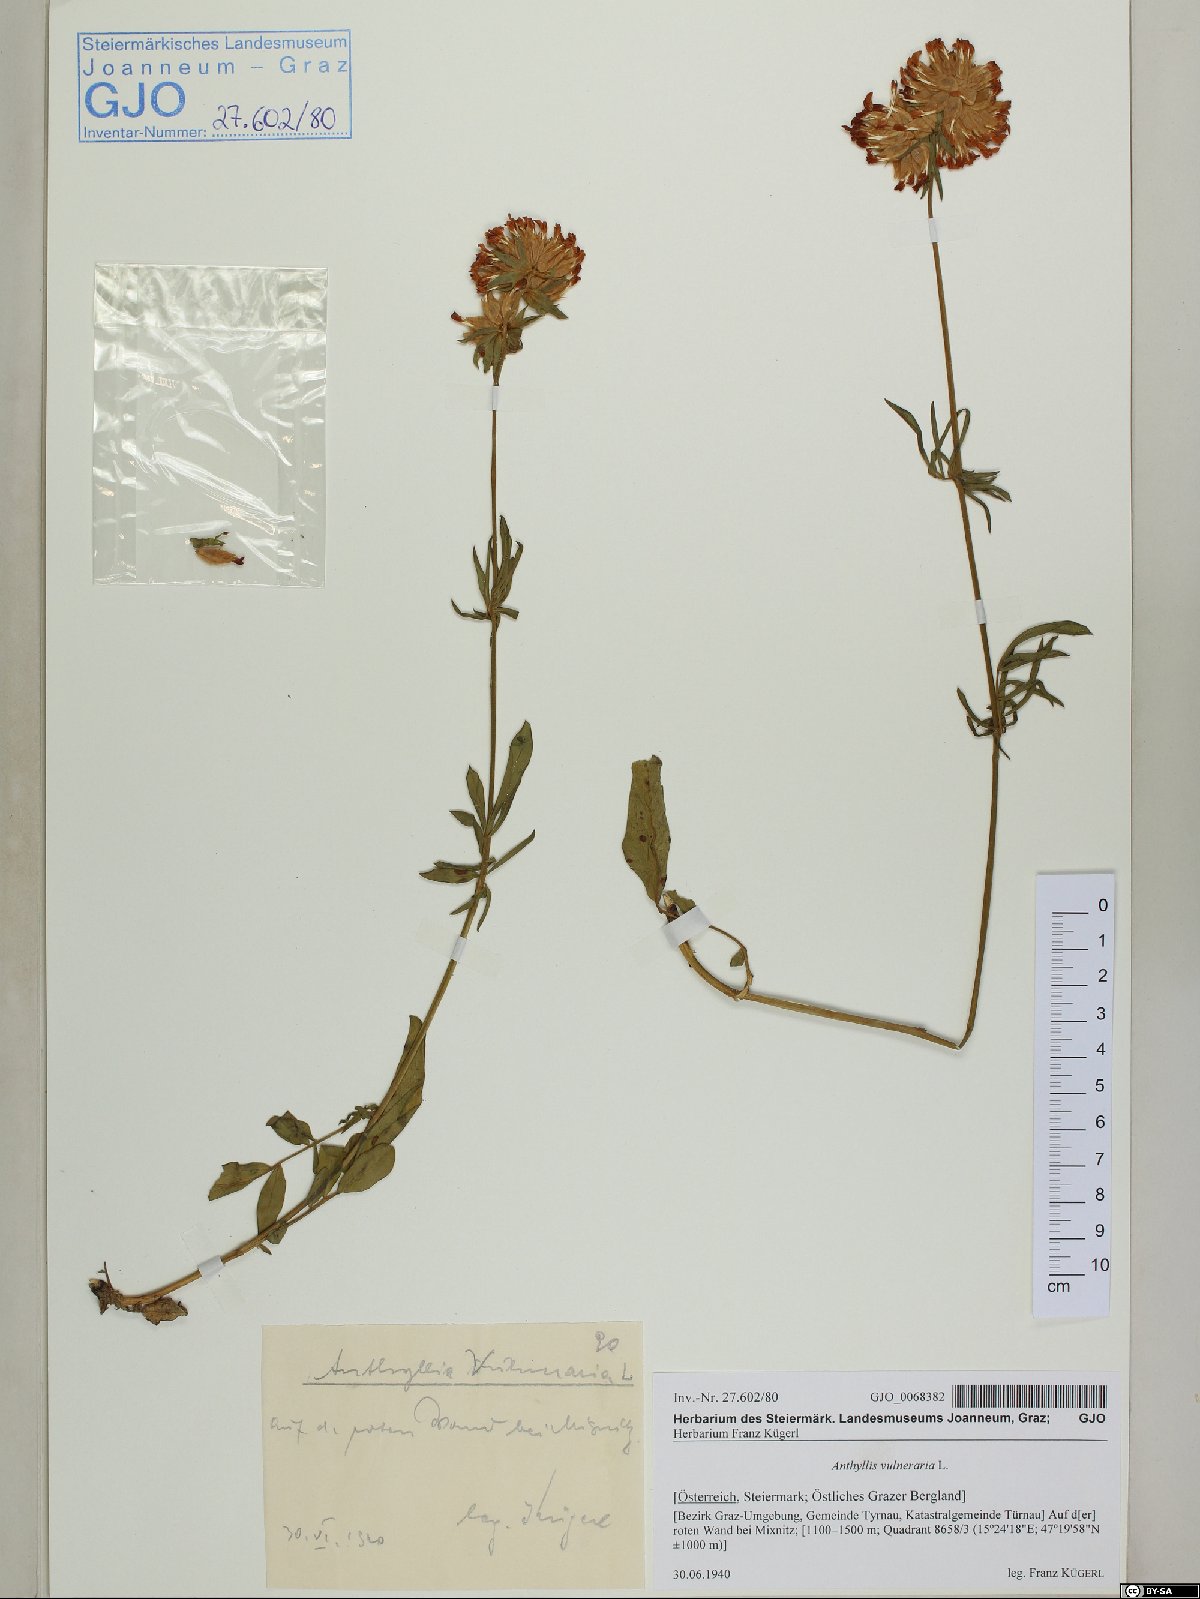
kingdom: Plantae
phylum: Tracheophyta
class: Magnoliopsida
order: Fabales
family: Fabaceae
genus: Anthyllis
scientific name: Anthyllis vulneraria
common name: Kidney vetch
